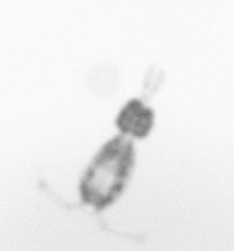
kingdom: Animalia
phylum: Arthropoda
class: Copepoda
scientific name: Copepoda
